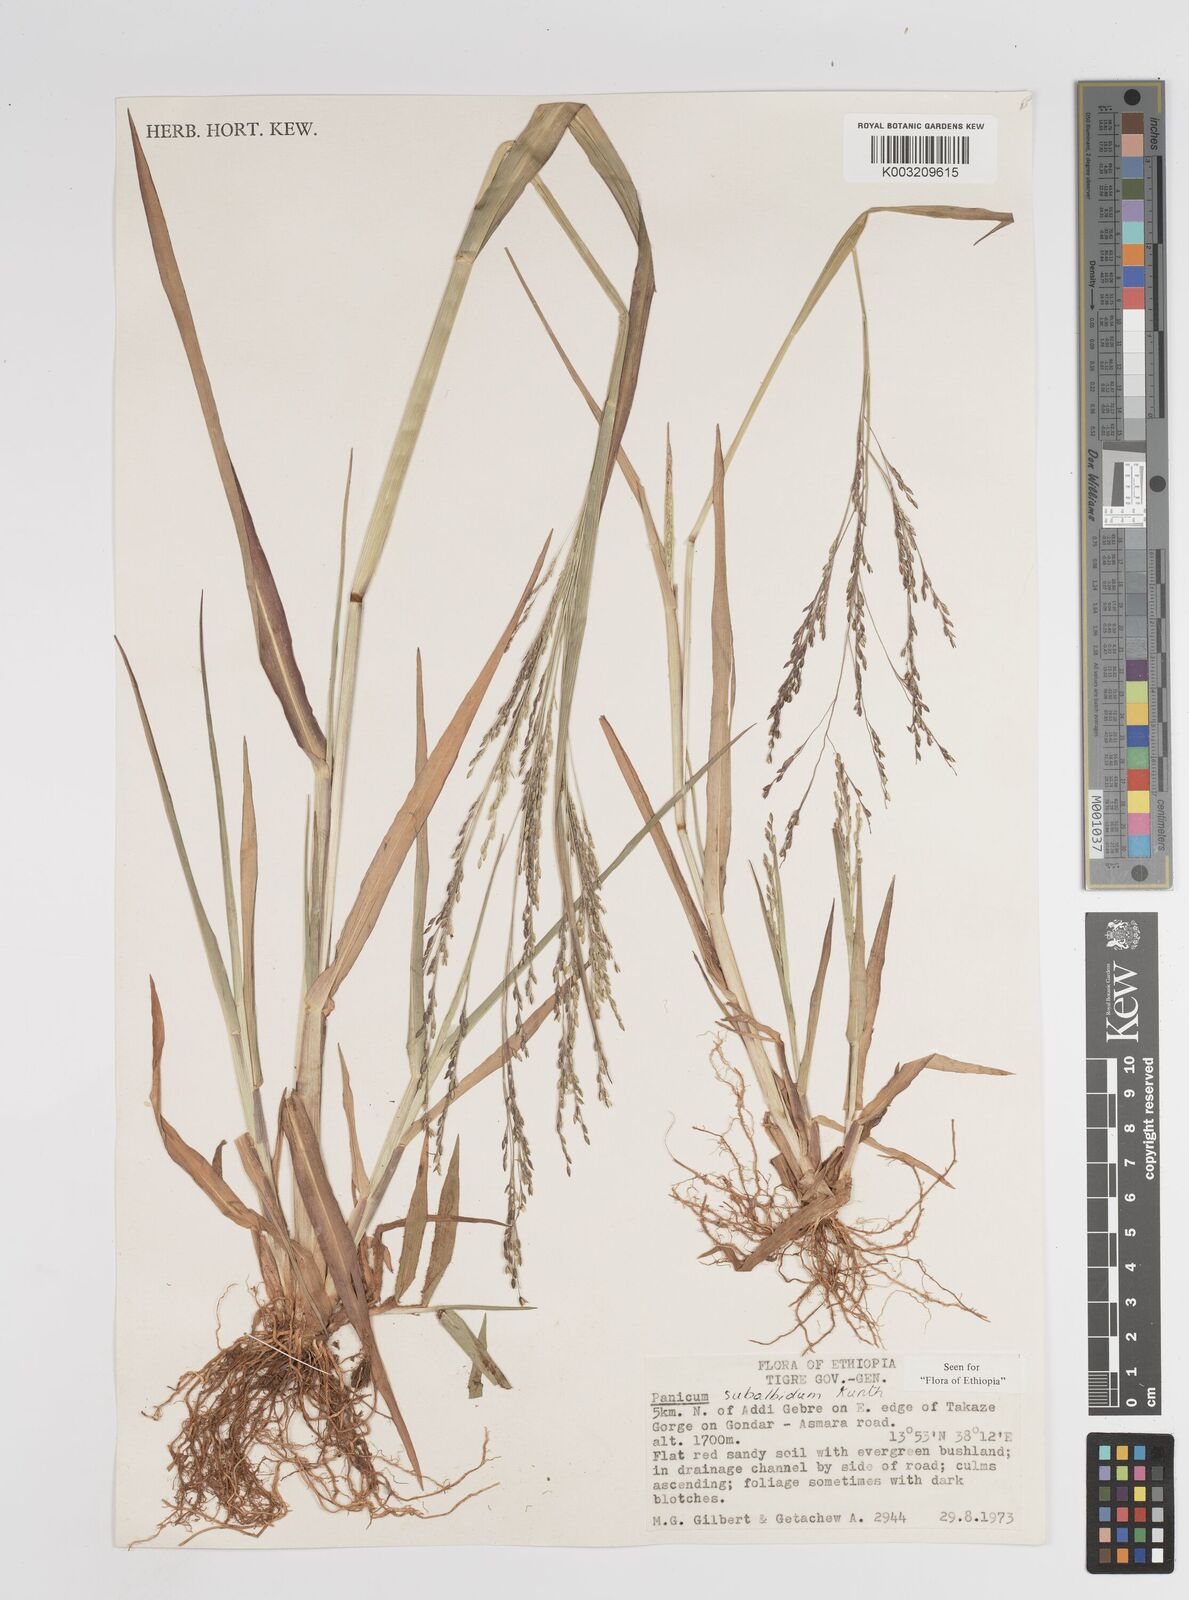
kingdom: Plantae
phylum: Tracheophyta
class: Liliopsida
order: Poales
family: Poaceae
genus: Panicum
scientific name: Panicum subalbidum
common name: Elbow buffalo grass
